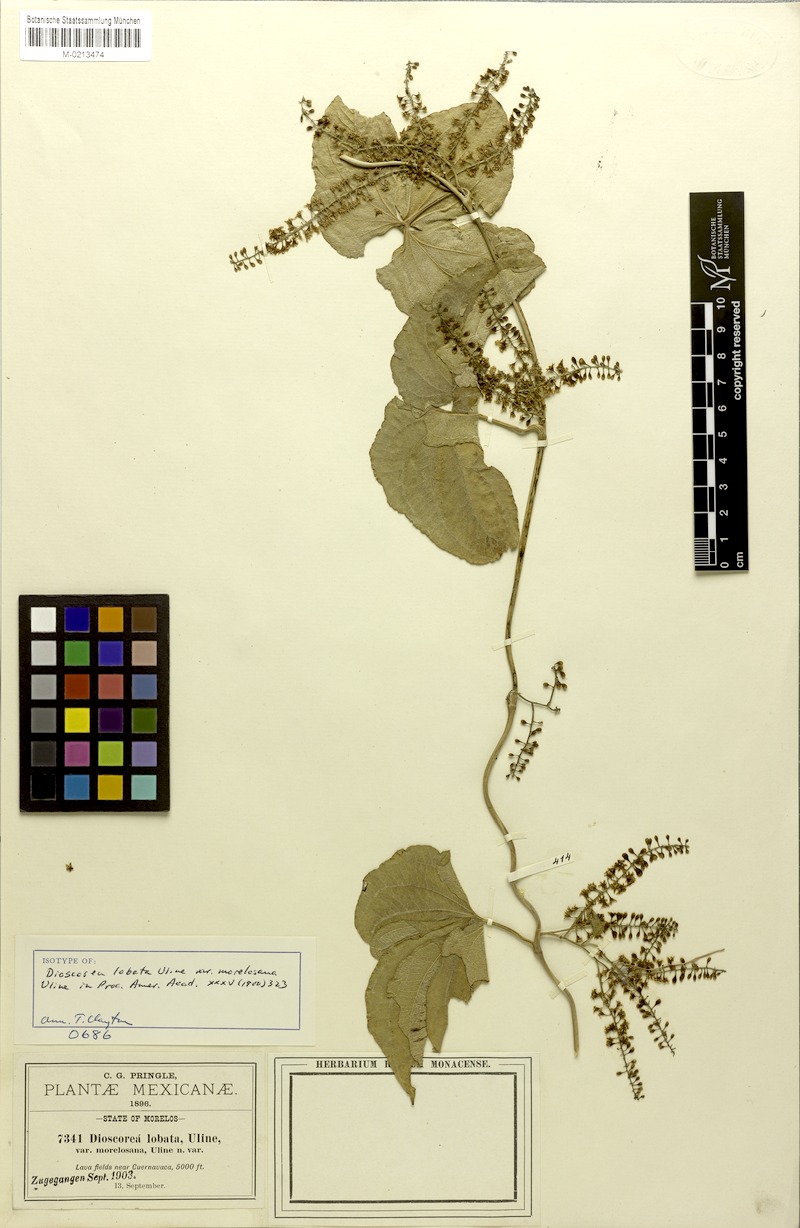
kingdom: Plantae
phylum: Tracheophyta
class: Liliopsida
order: Dioscoreales
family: Dioscoreaceae
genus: Dioscorea
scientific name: Dioscorea morelosana
